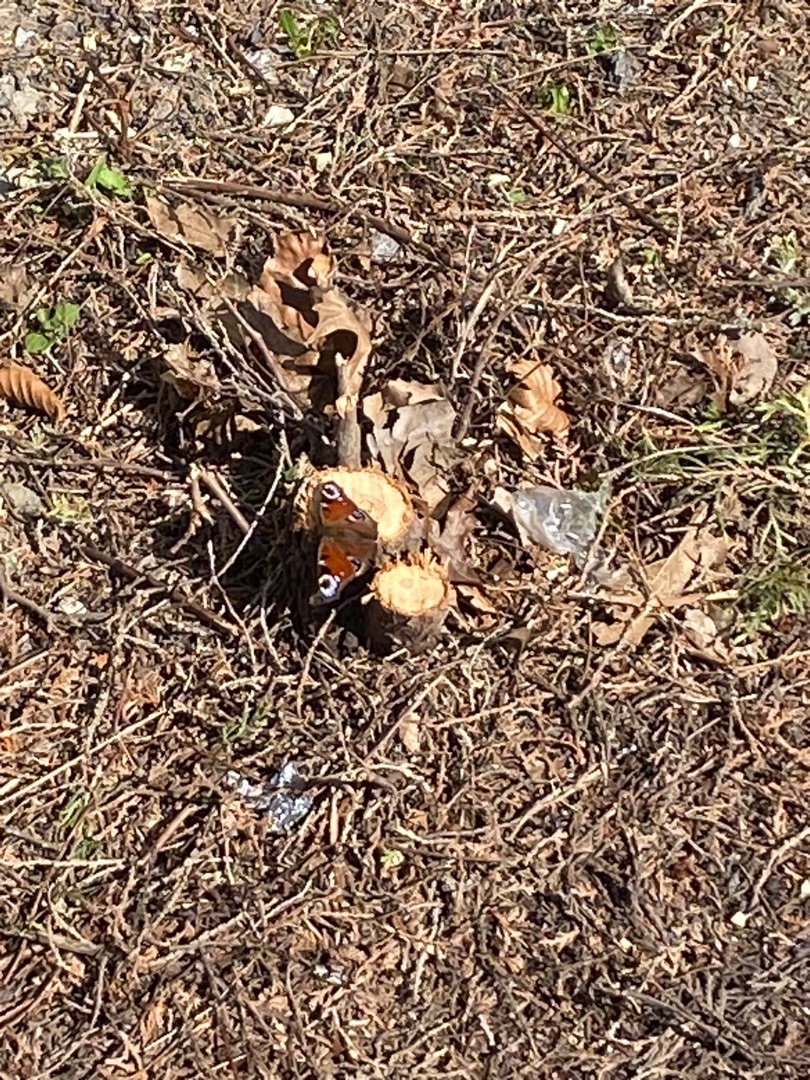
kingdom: Animalia
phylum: Arthropoda
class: Insecta
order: Lepidoptera
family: Nymphalidae
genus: Aglais
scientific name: Aglais io
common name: Dagpåfugleøje
